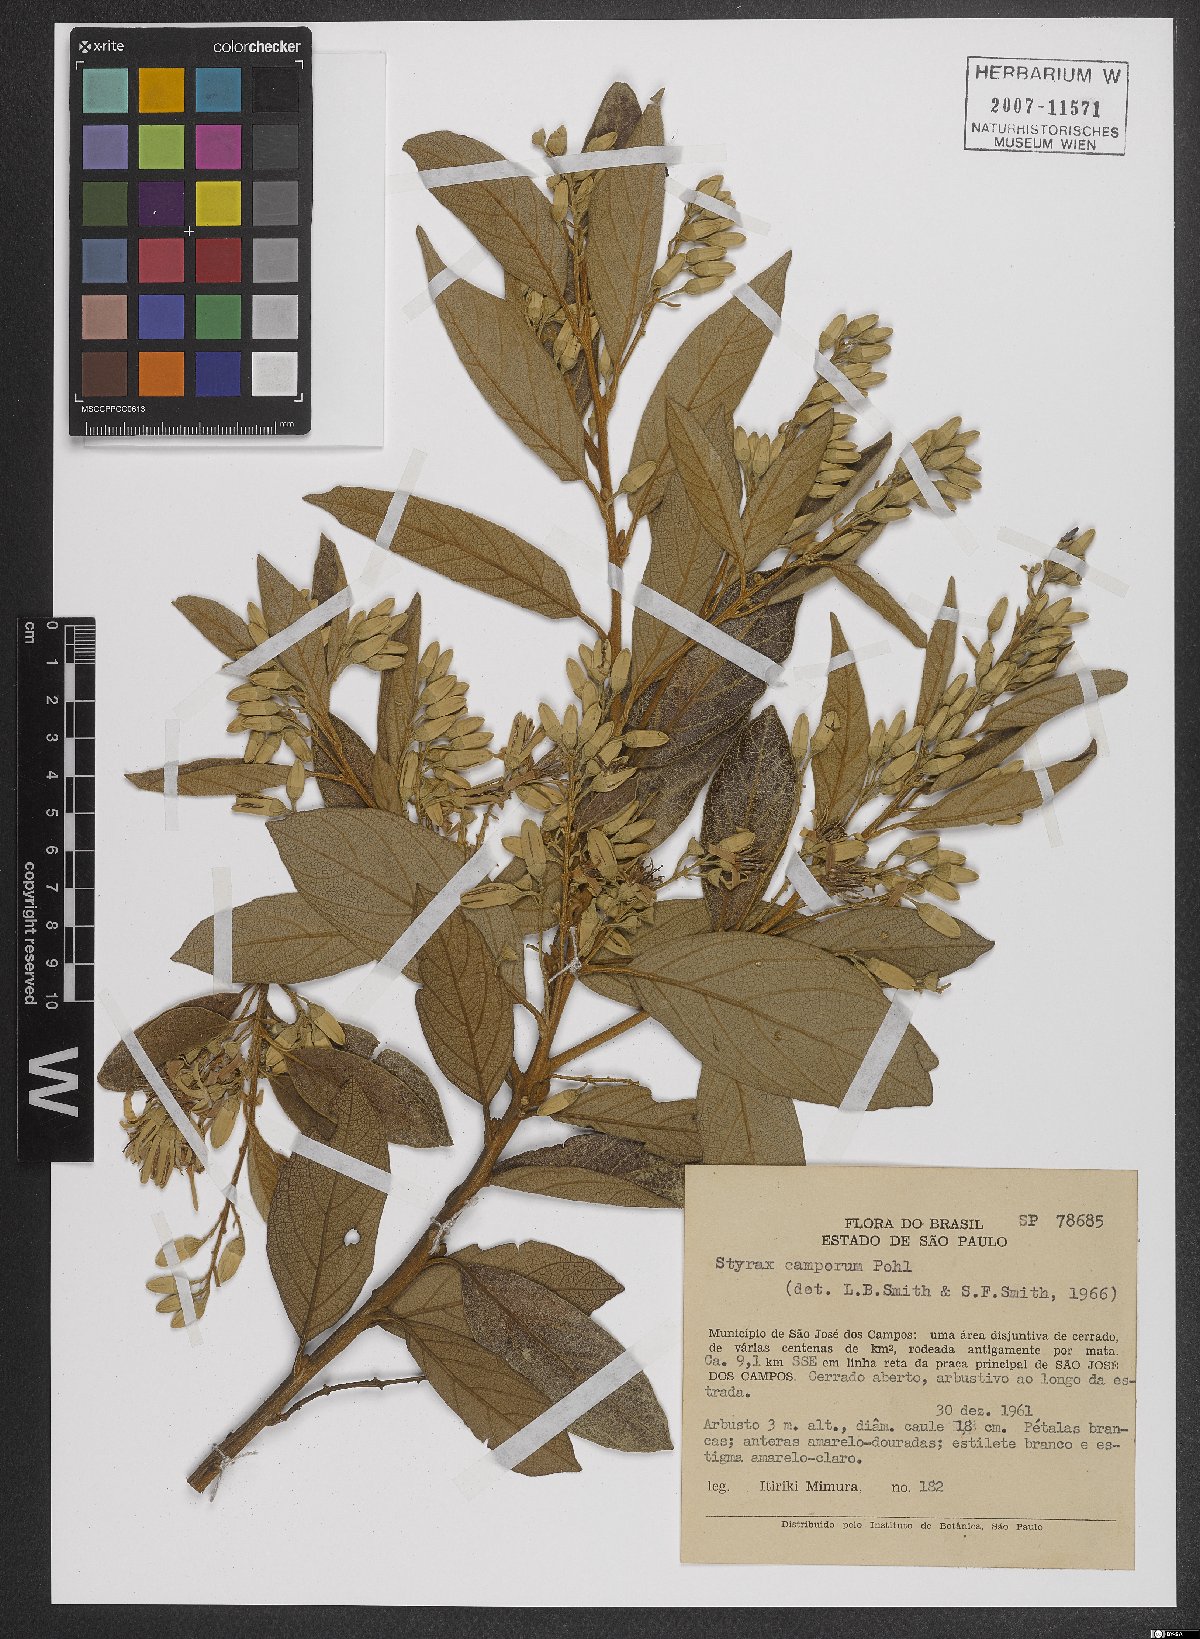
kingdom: Plantae
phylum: Tracheophyta
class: Magnoliopsida
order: Ericales
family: Styracaceae
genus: Styrax
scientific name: Styrax camporum
